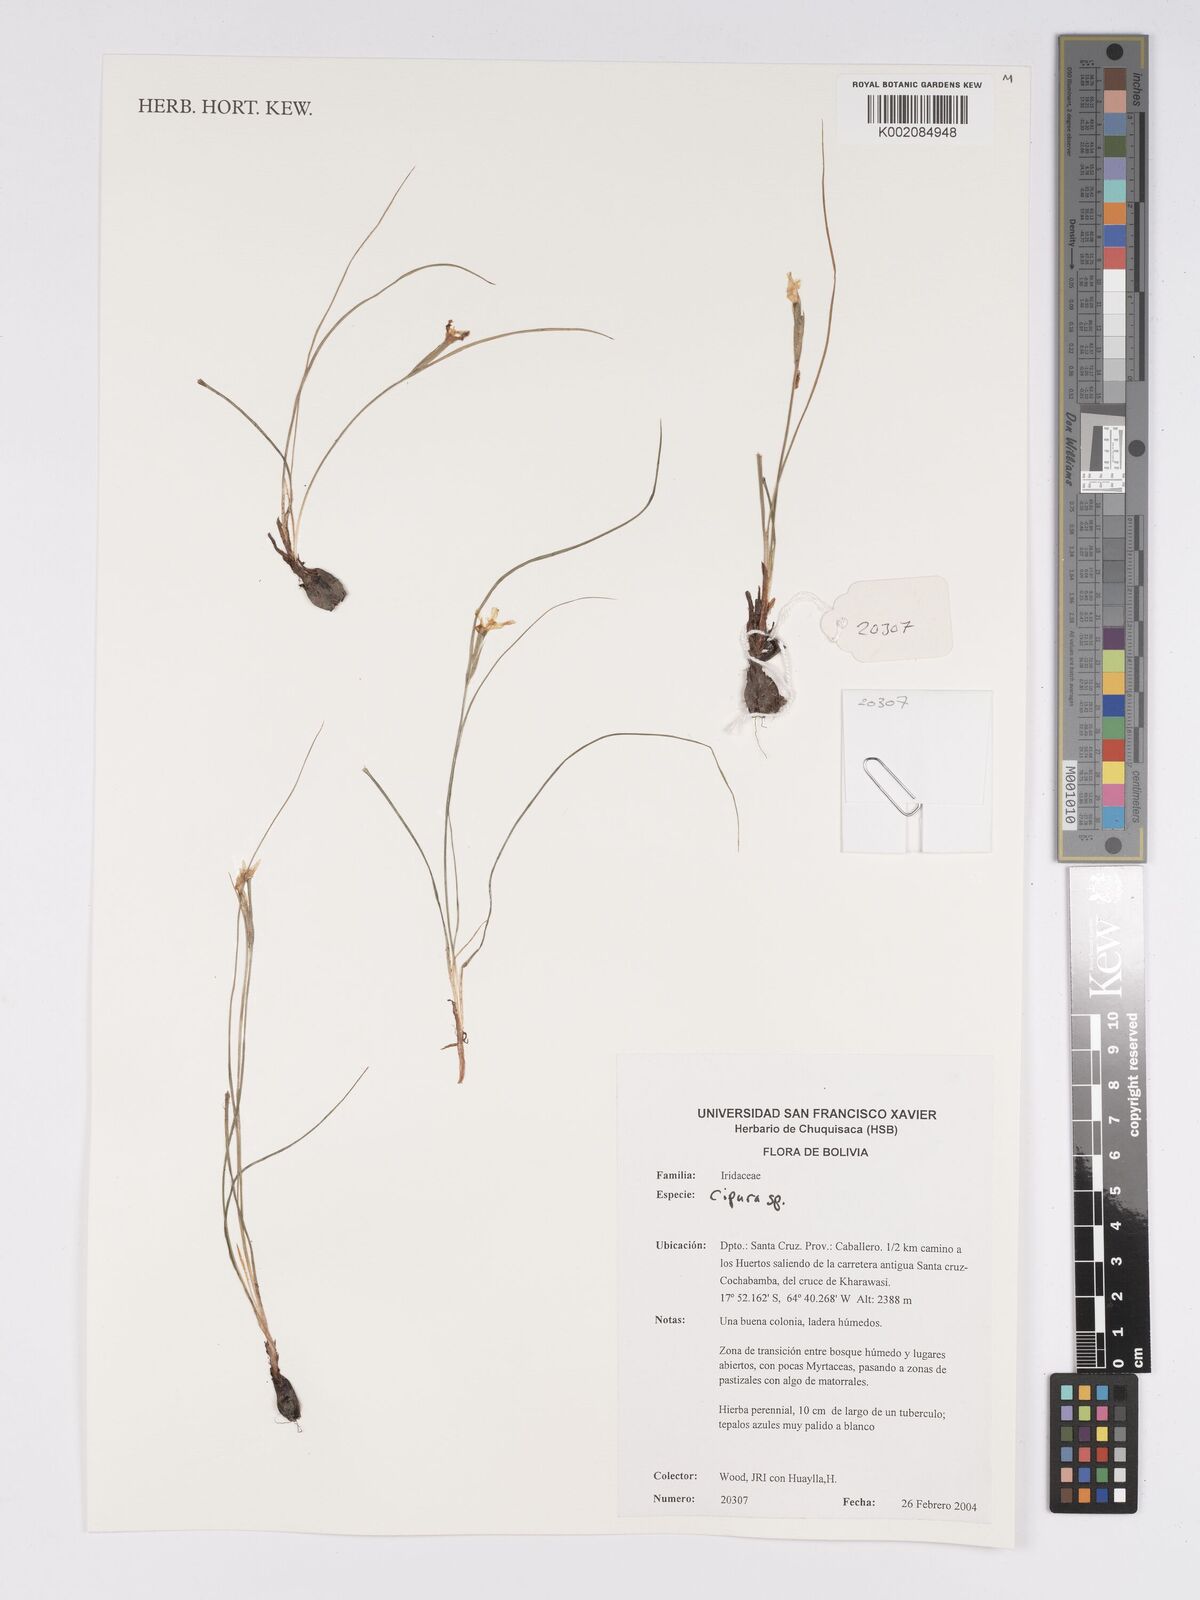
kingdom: Plantae
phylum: Tracheophyta
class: Liliopsida
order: Asparagales
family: Iridaceae
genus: Cipura
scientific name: Cipura
